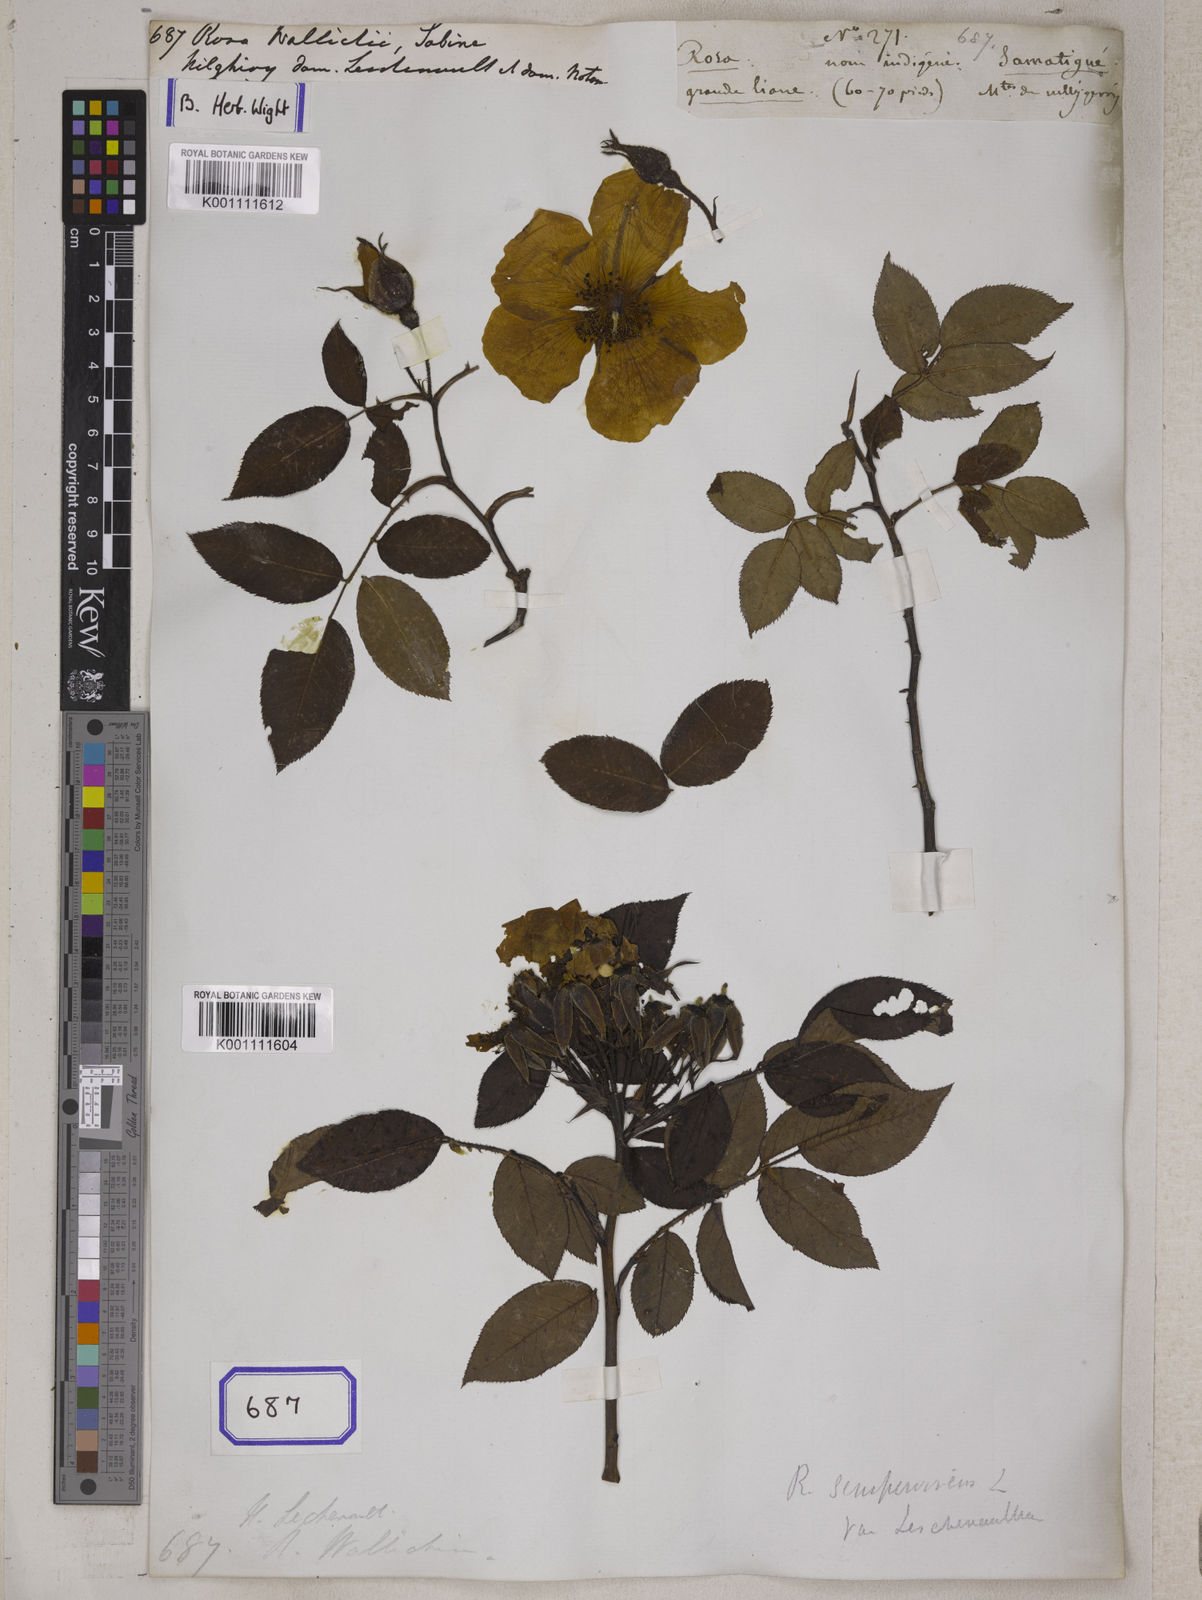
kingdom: Plantae
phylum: Tracheophyta
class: Magnoliopsida
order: Rosales
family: Rosaceae
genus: Rosa
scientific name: Rosa
